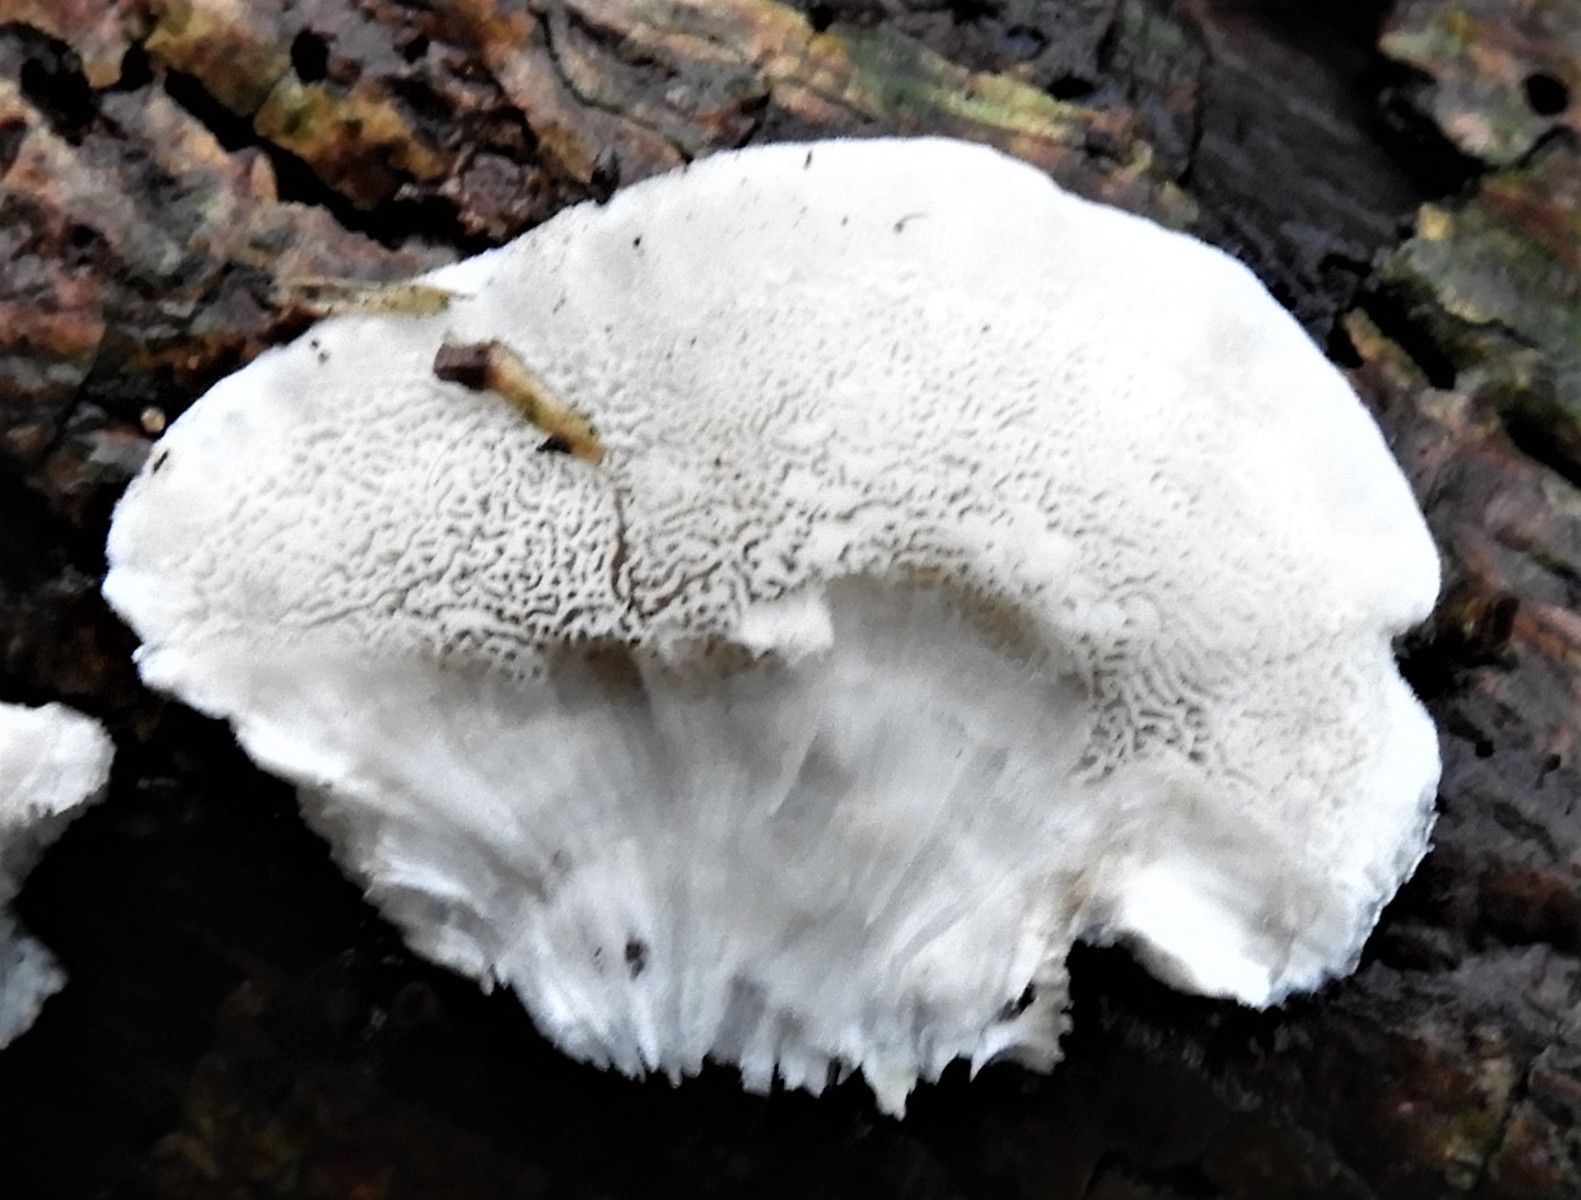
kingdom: Fungi
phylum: Basidiomycota
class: Agaricomycetes
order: Polyporales
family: Polyporaceae
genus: Cyanosporus
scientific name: Cyanosporus caesius
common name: blålig kødporesvamp
